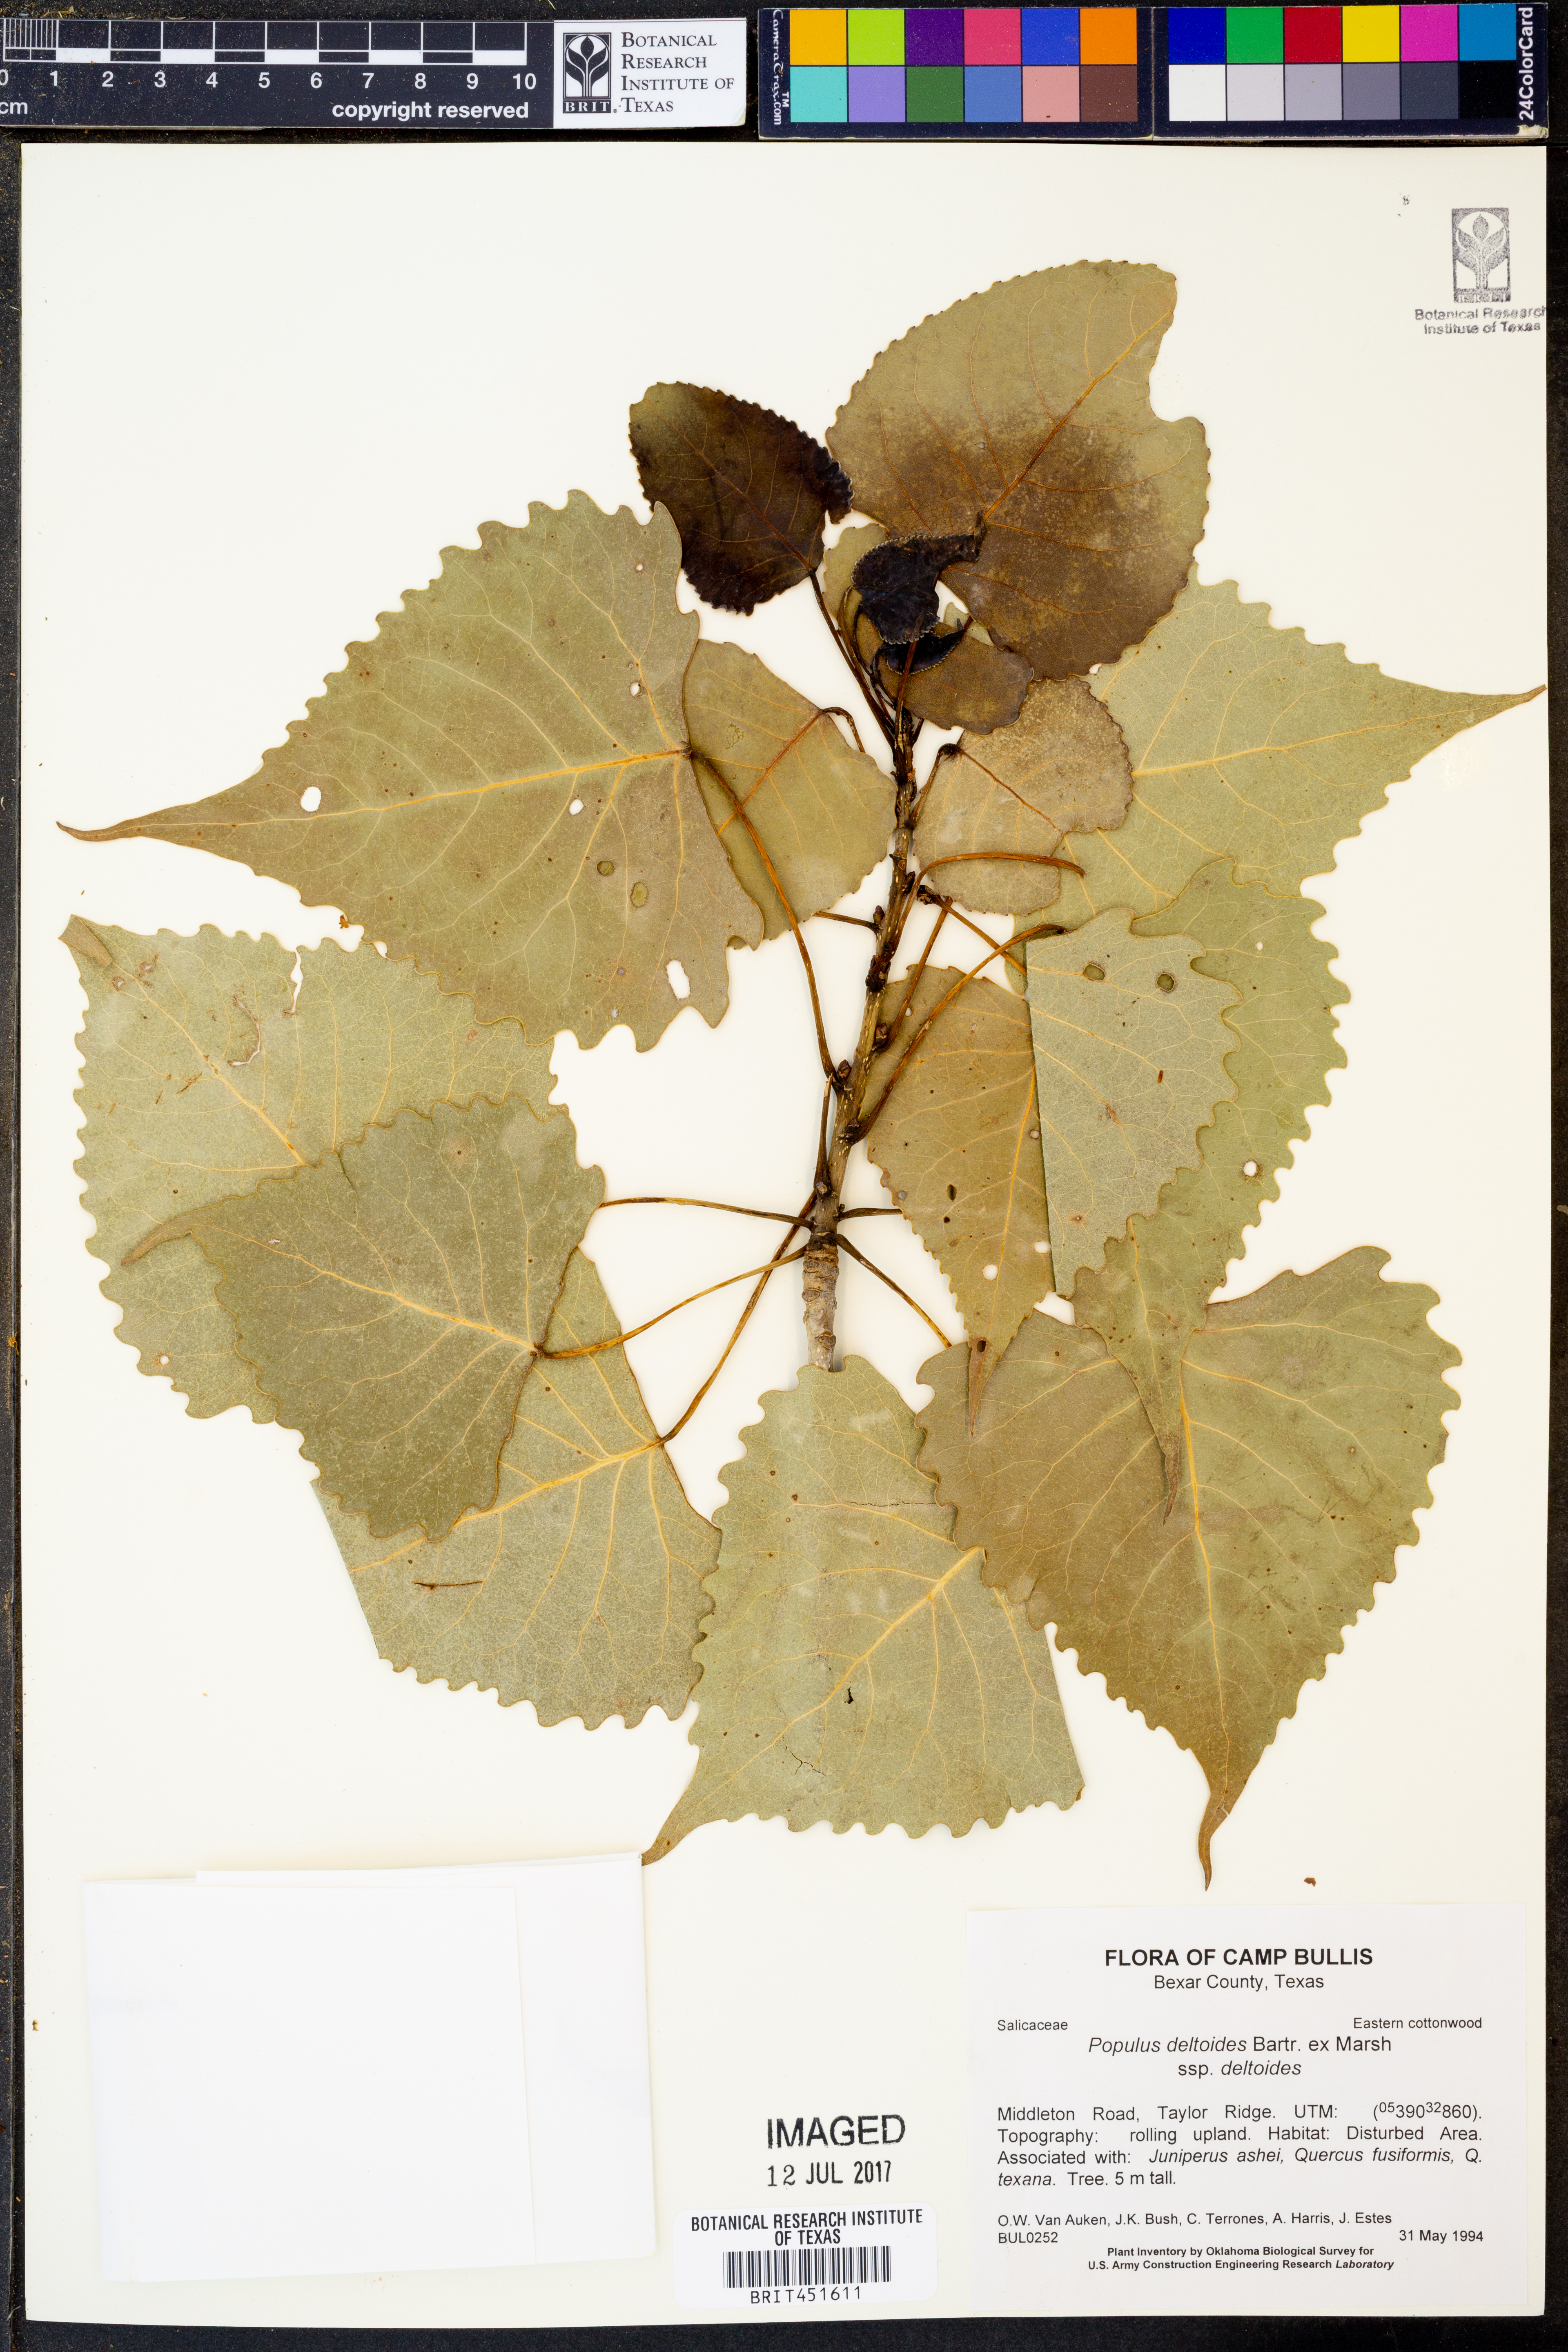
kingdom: Plantae
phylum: Tracheophyta
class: Magnoliopsida
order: Malpighiales
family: Salicaceae
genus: Populus
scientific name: Populus deltoides
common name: Eastern cottonwood
